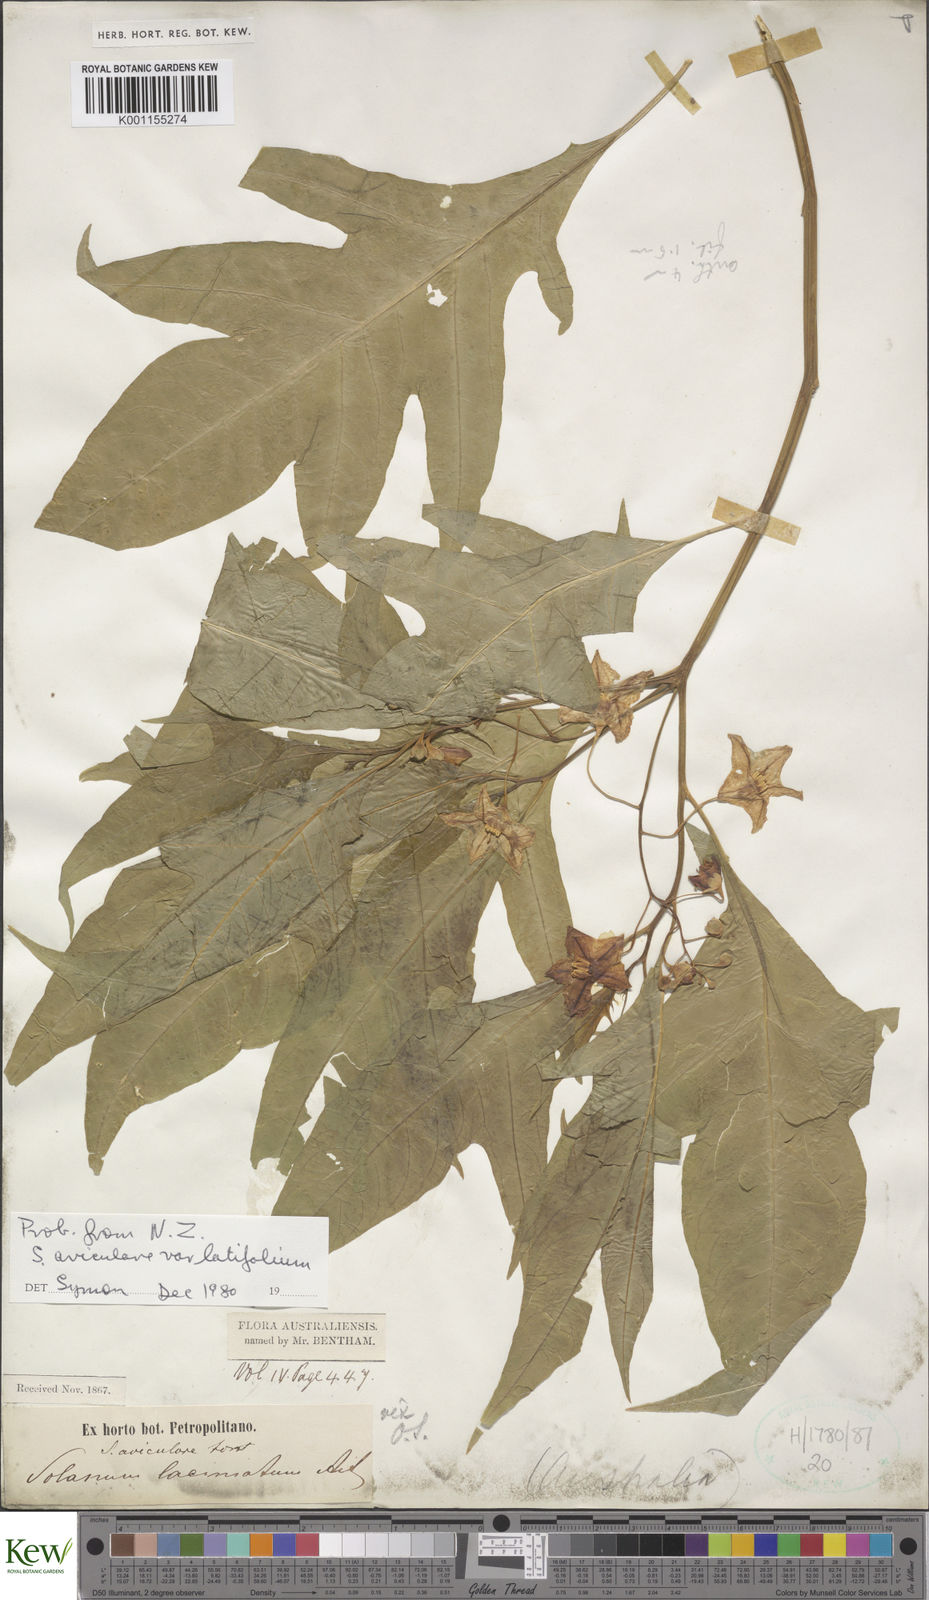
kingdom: Plantae
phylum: Tracheophyta
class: Magnoliopsida
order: Solanales
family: Solanaceae
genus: Solanum
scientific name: Solanum aviculare
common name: New zealand nightshade
